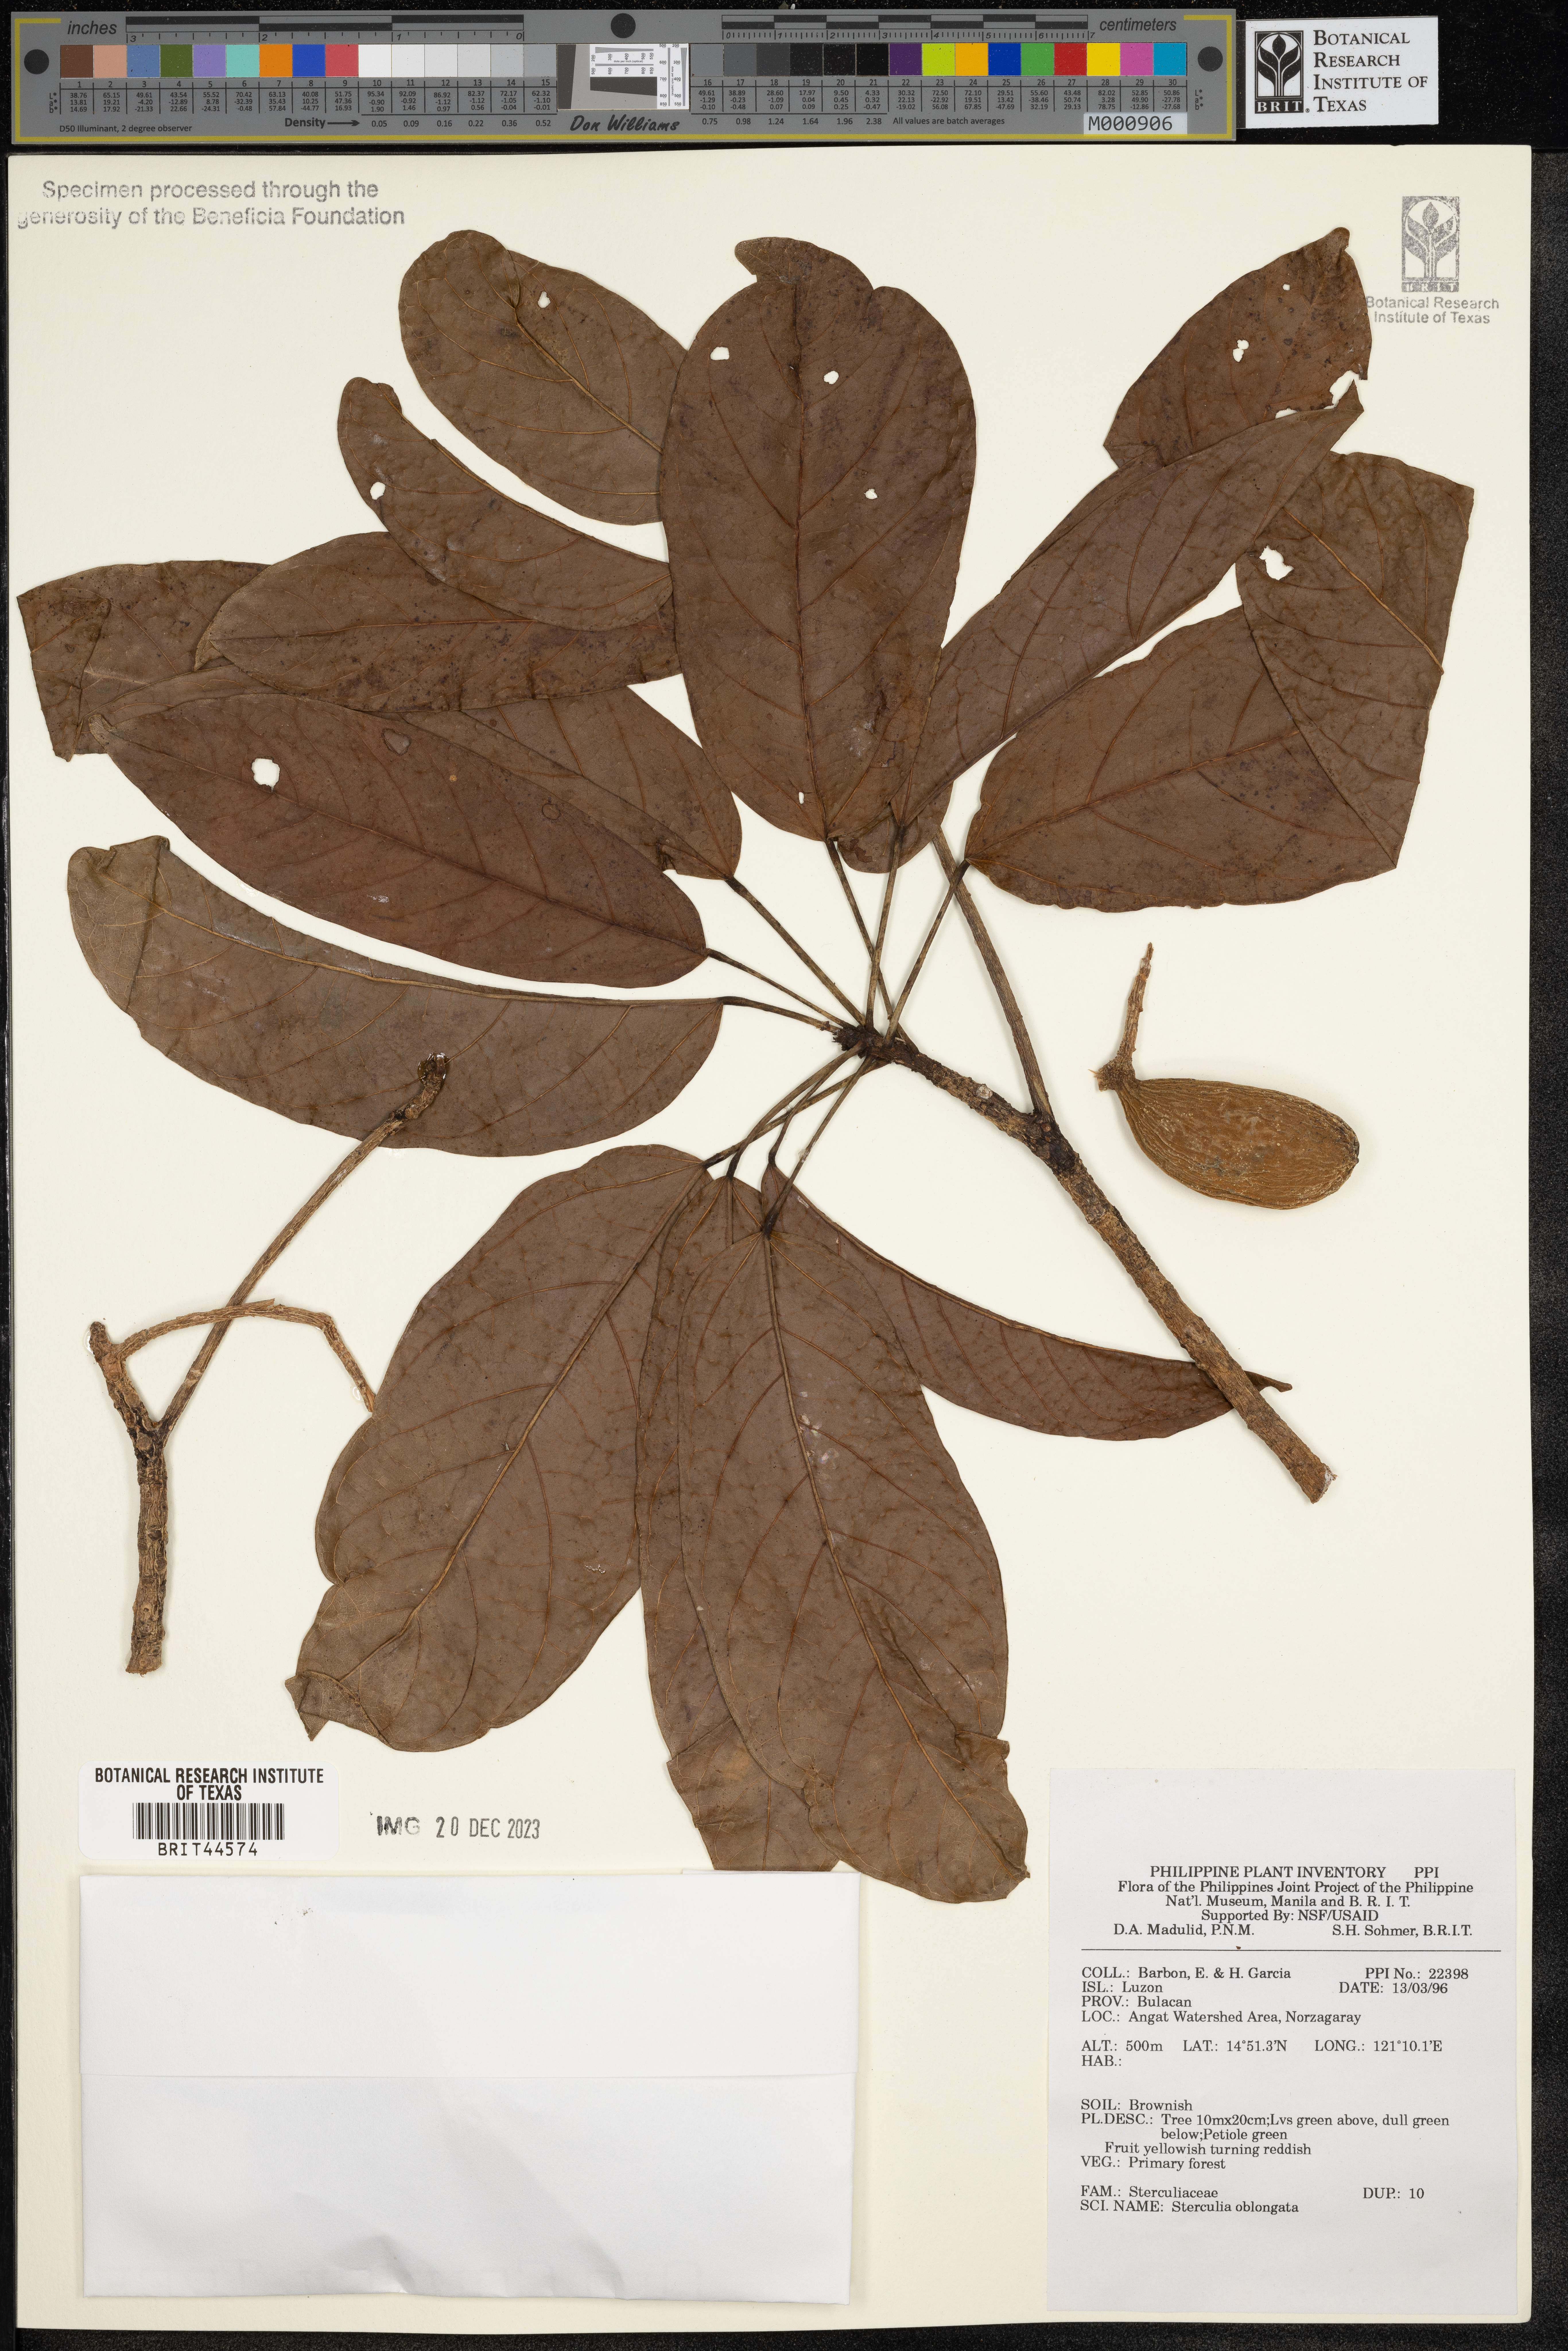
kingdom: Plantae
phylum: Tracheophyta
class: Magnoliopsida
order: Malvales
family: Malvaceae
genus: Sterculia
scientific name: Sterculia oblongata
